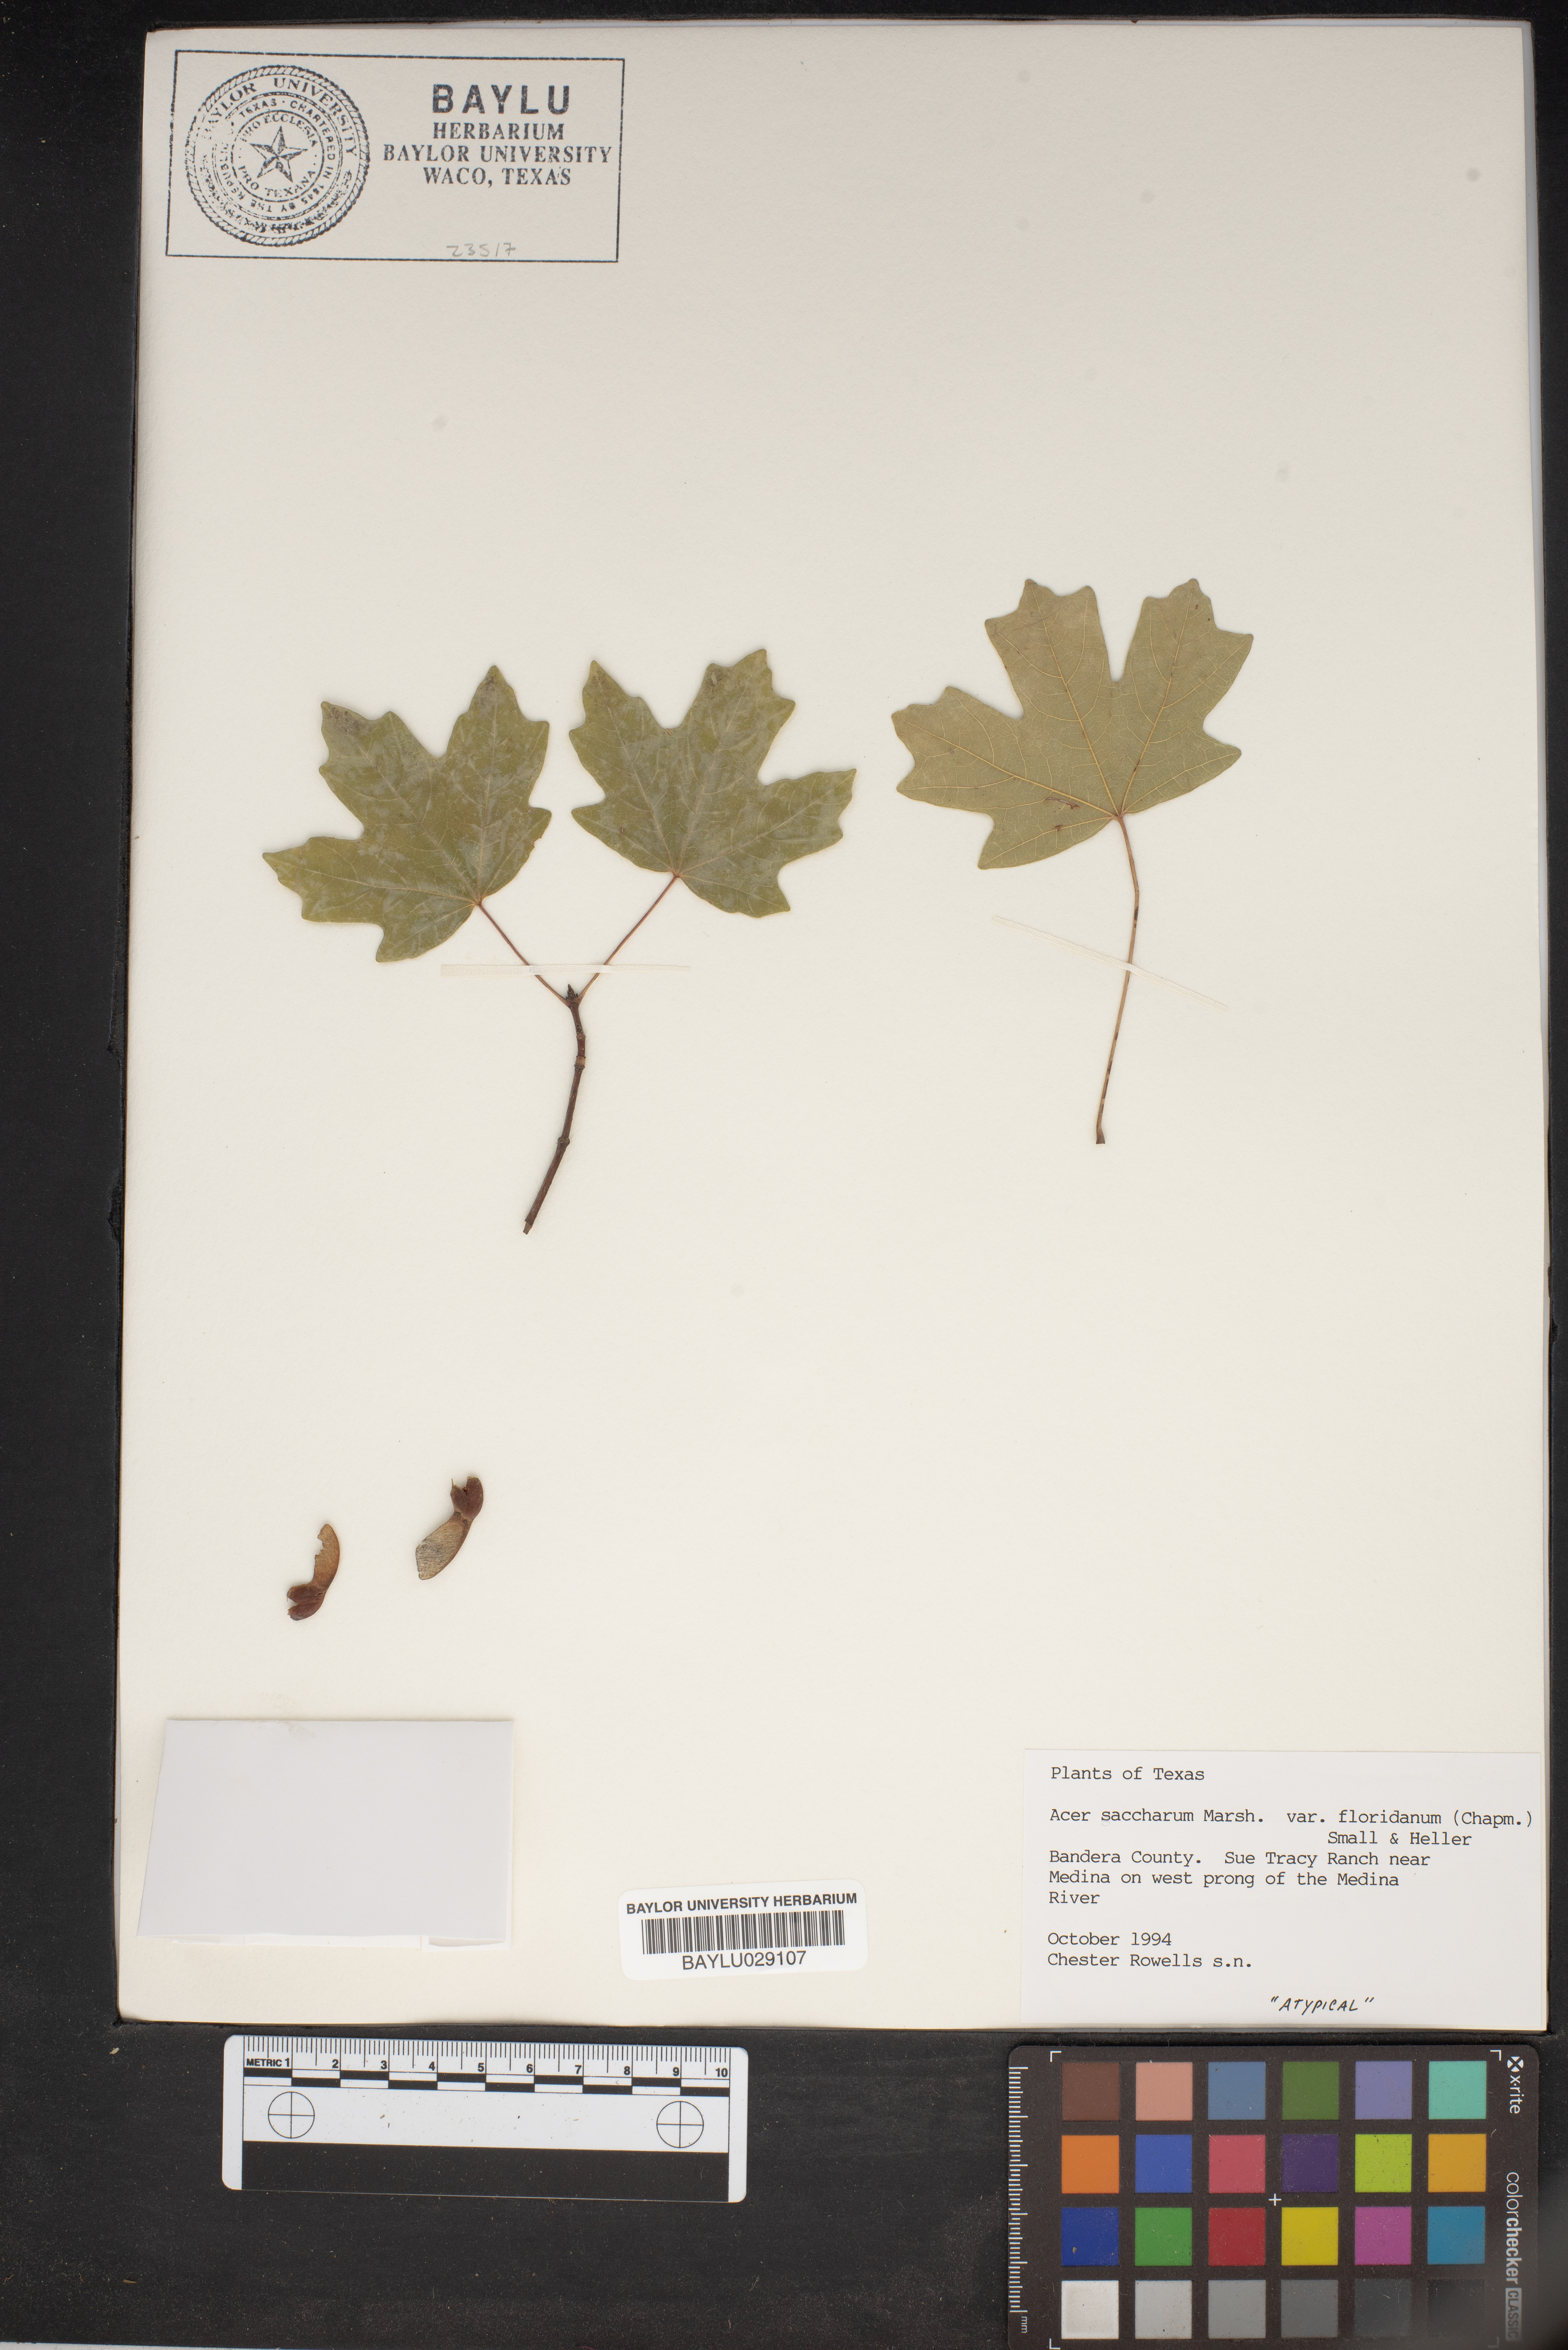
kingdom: Plantae
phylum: Tracheophyta
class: Magnoliopsida
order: Sapindales
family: Sapindaceae
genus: Acer
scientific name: Acer barbatum
